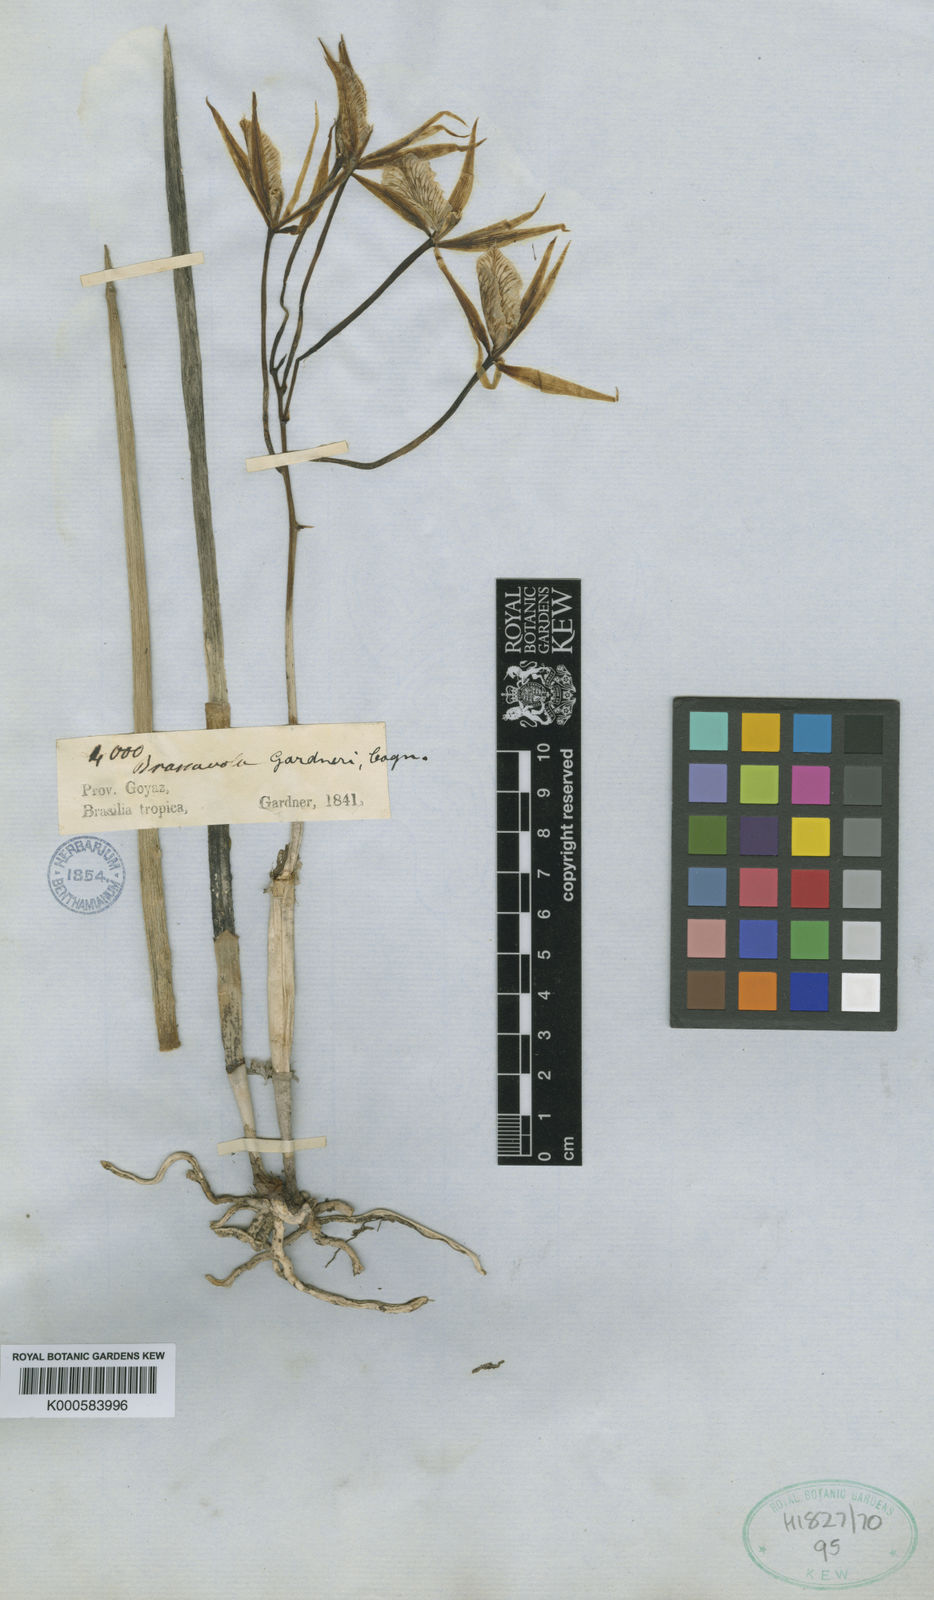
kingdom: Plantae
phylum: Tracheophyta
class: Liliopsida
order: Asparagales
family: Orchidaceae
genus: Brassavola
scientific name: Brassavola flagellaris
